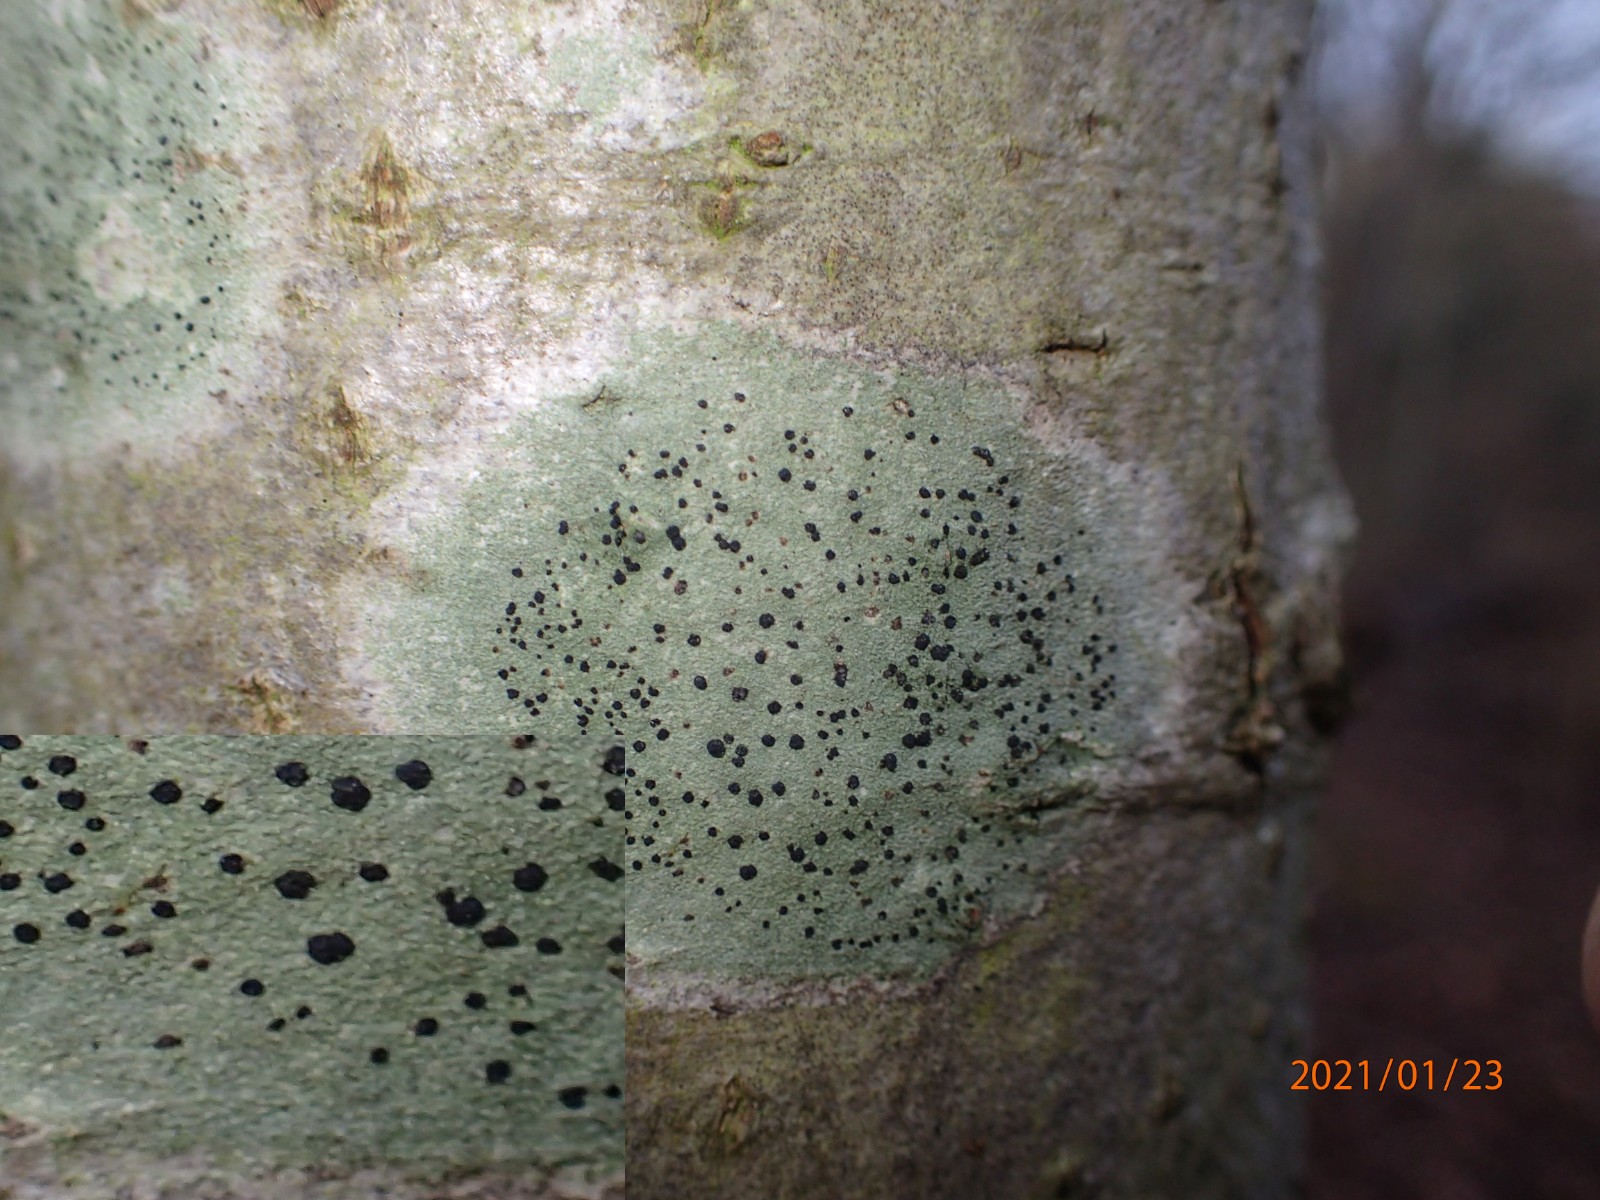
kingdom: Fungi
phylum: Ascomycota
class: Lecanoromycetes
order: Lecanorales
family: Lecanoraceae
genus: Lecidella
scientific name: Lecidella elaeochroma
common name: grågrøn skivelav
